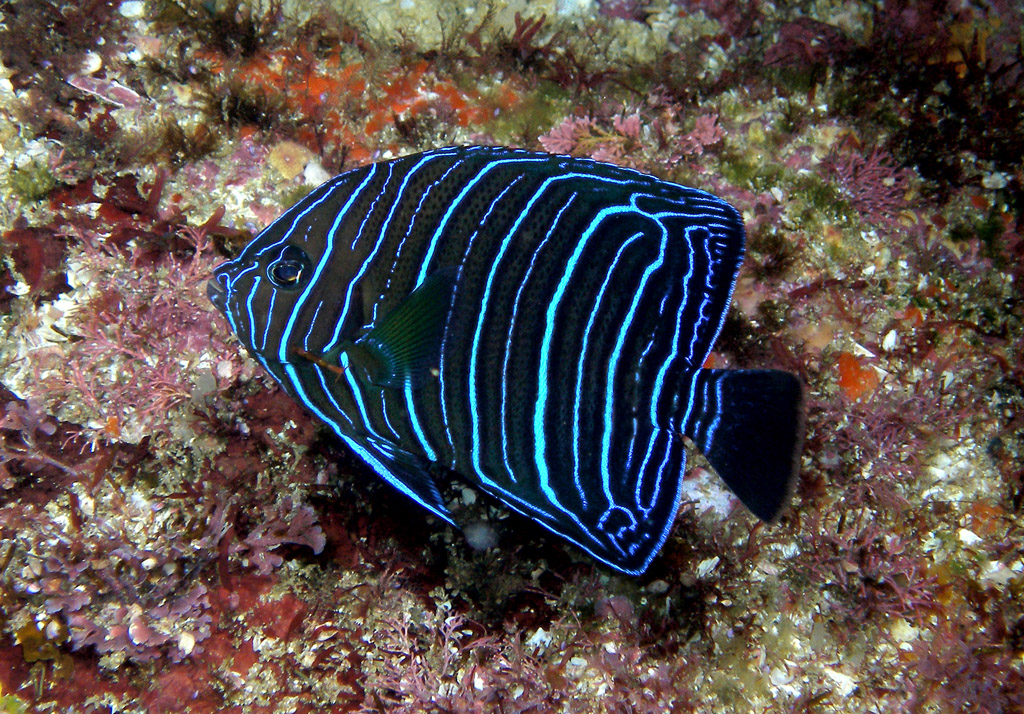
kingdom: Animalia
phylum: Chordata
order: Perciformes
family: Pomacanthidae
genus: Pomacanthus
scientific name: Pomacanthus rhomboides
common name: Old woman
